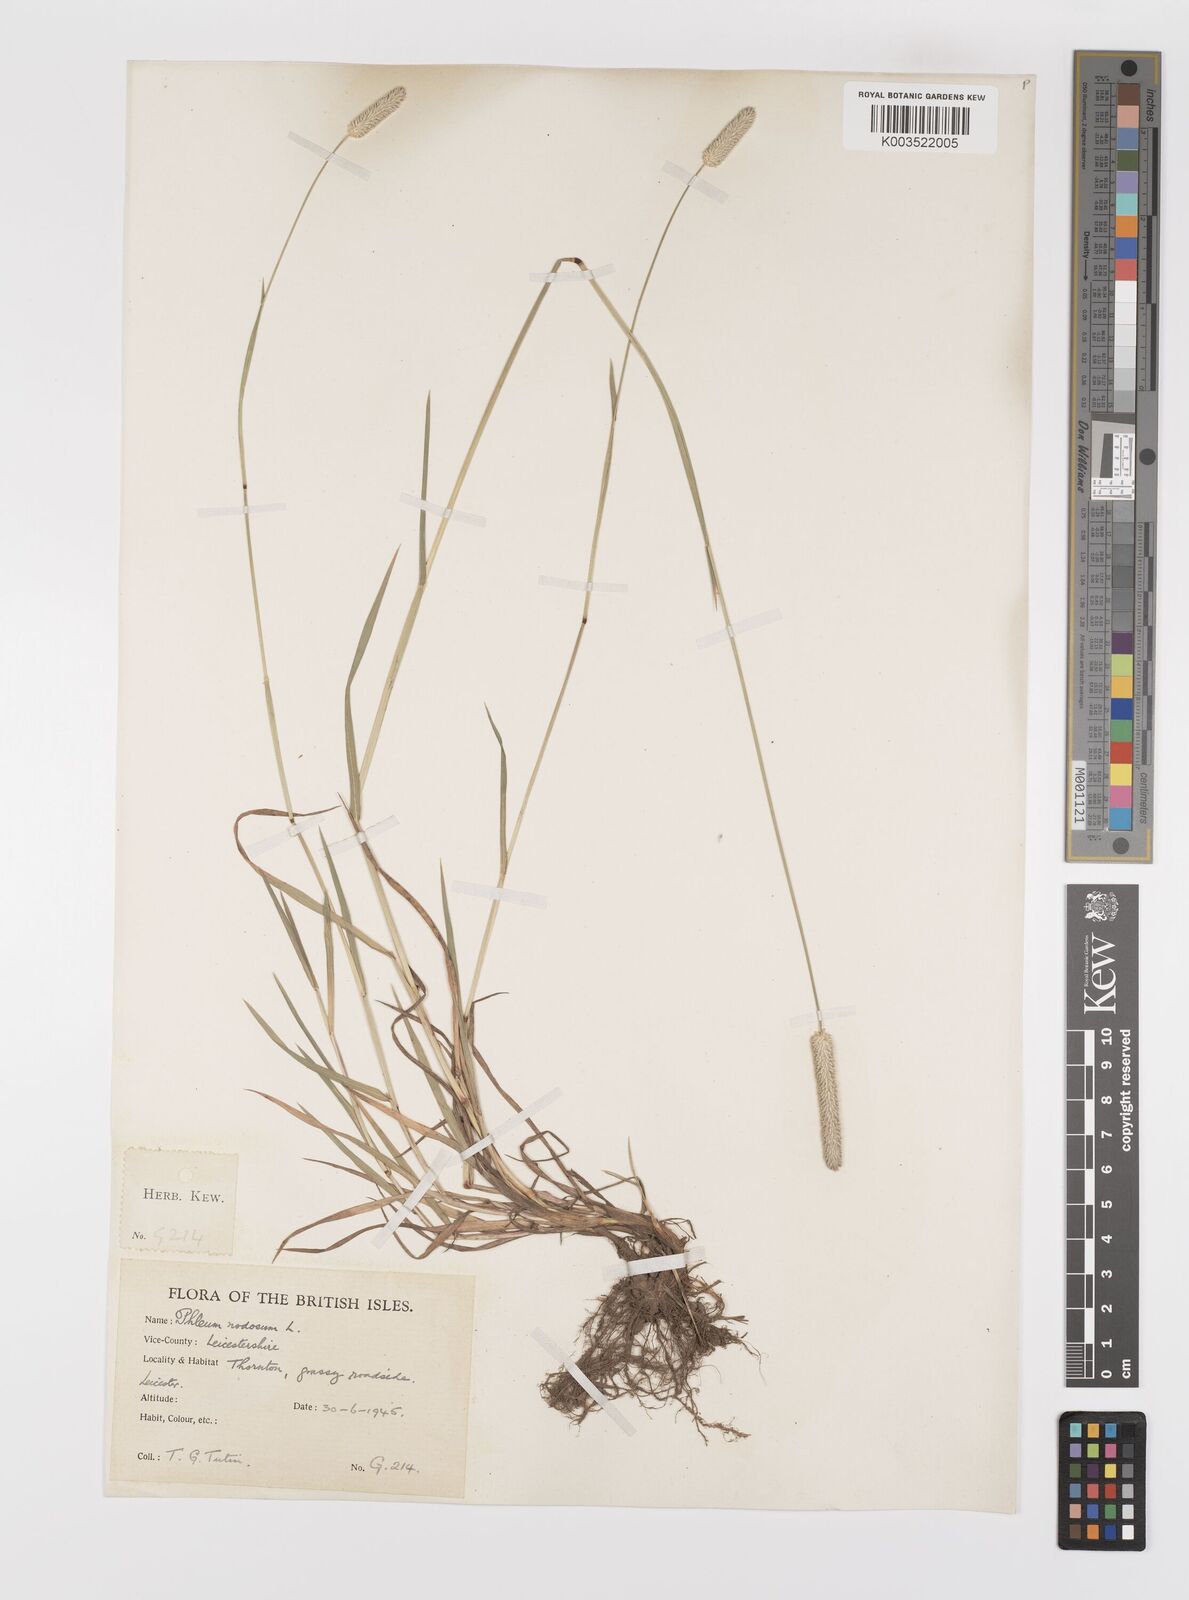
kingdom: Plantae
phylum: Tracheophyta
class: Liliopsida
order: Poales
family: Poaceae
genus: Phleum
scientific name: Phleum bertolonii
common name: Smaller cat's-tail
